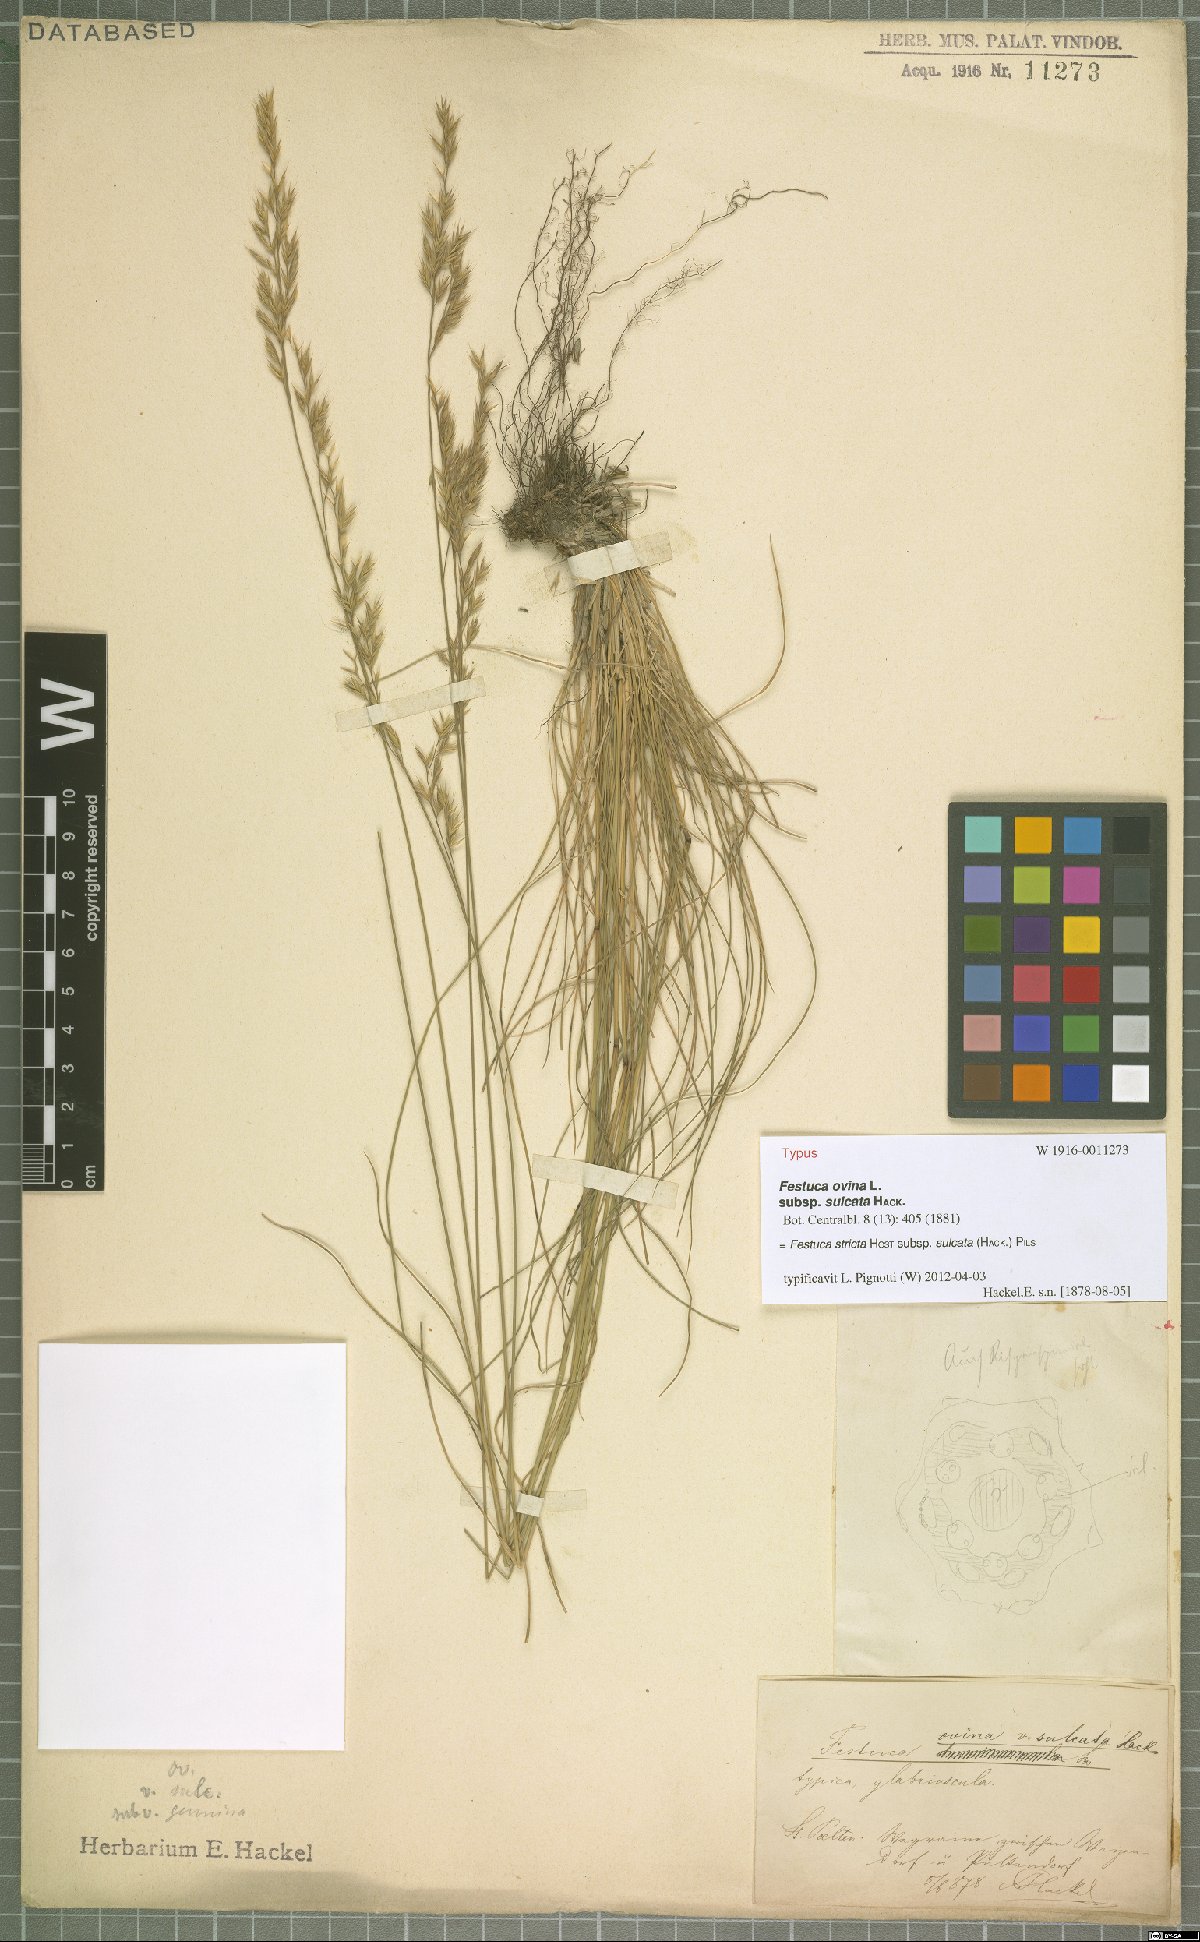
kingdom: Plantae
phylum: Tracheophyta
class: Liliopsida
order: Poales
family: Poaceae
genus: Festuca
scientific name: Festuca rupicola
